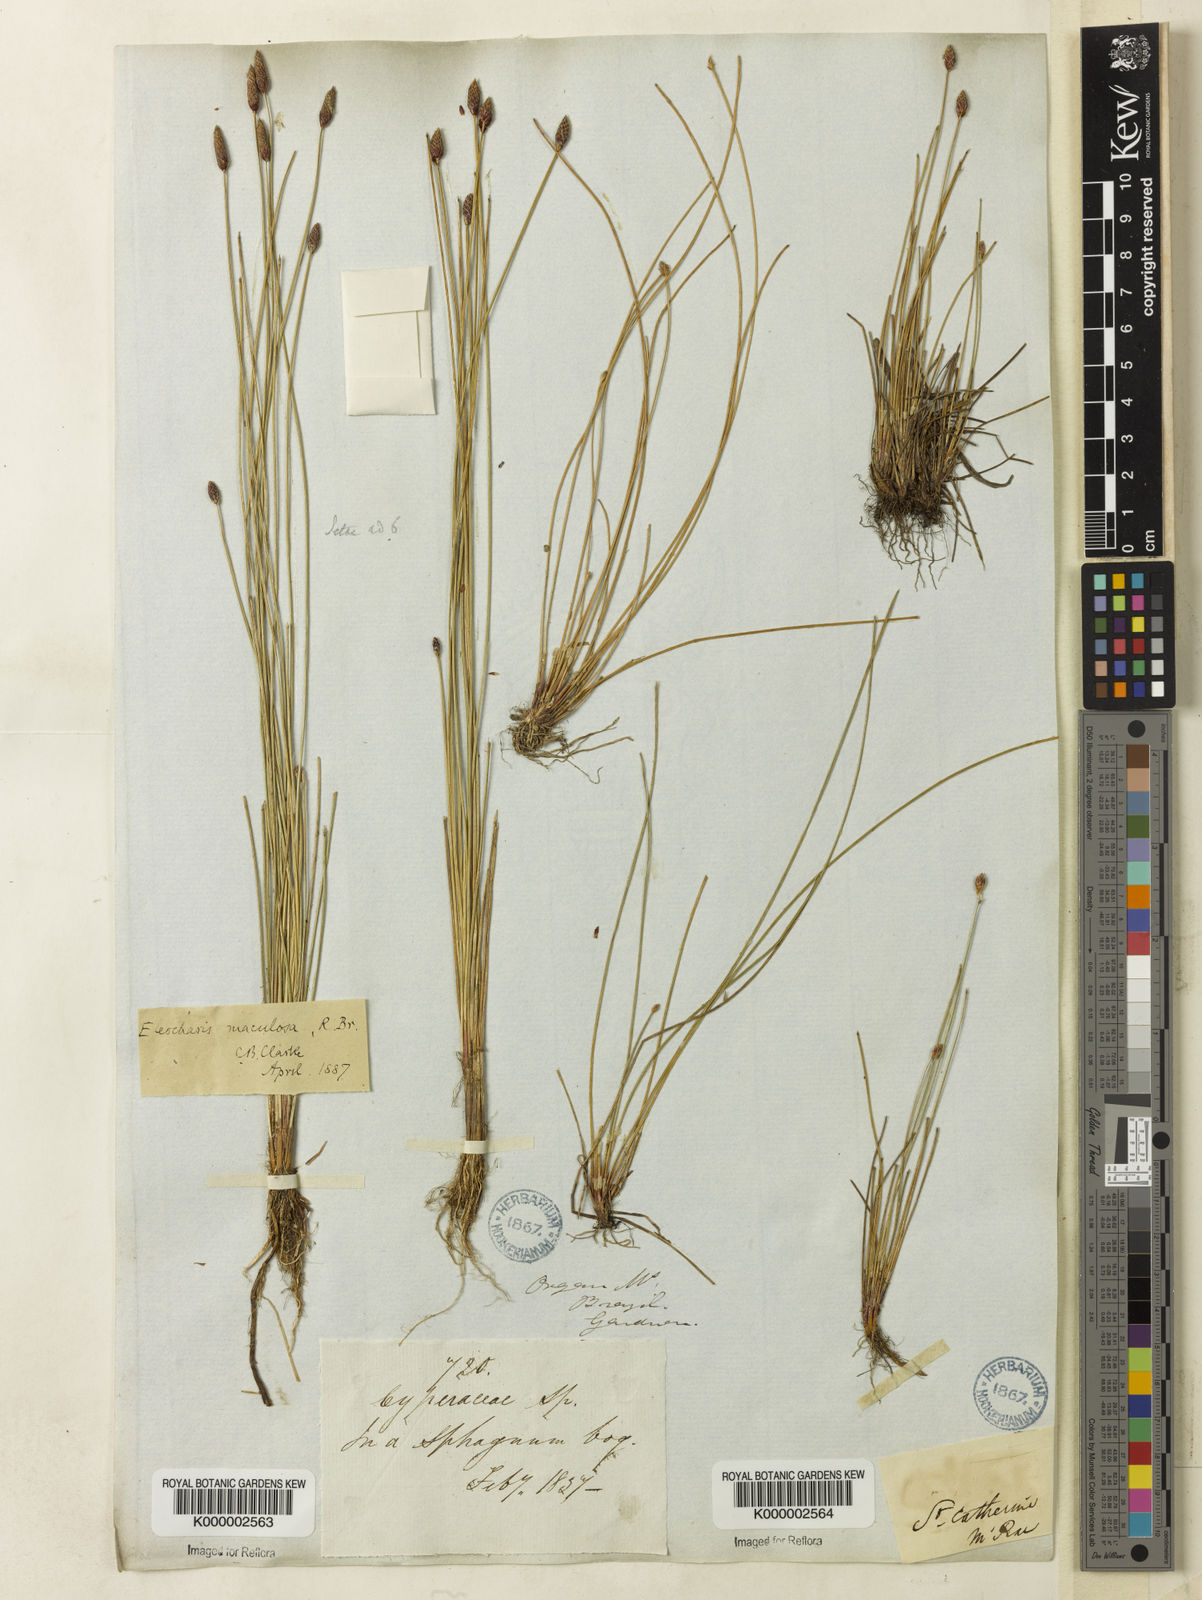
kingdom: Plantae
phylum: Tracheophyta
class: Liliopsida
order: Poales
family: Cyperaceae
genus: Eleocharis
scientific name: Eleocharis maculosa
